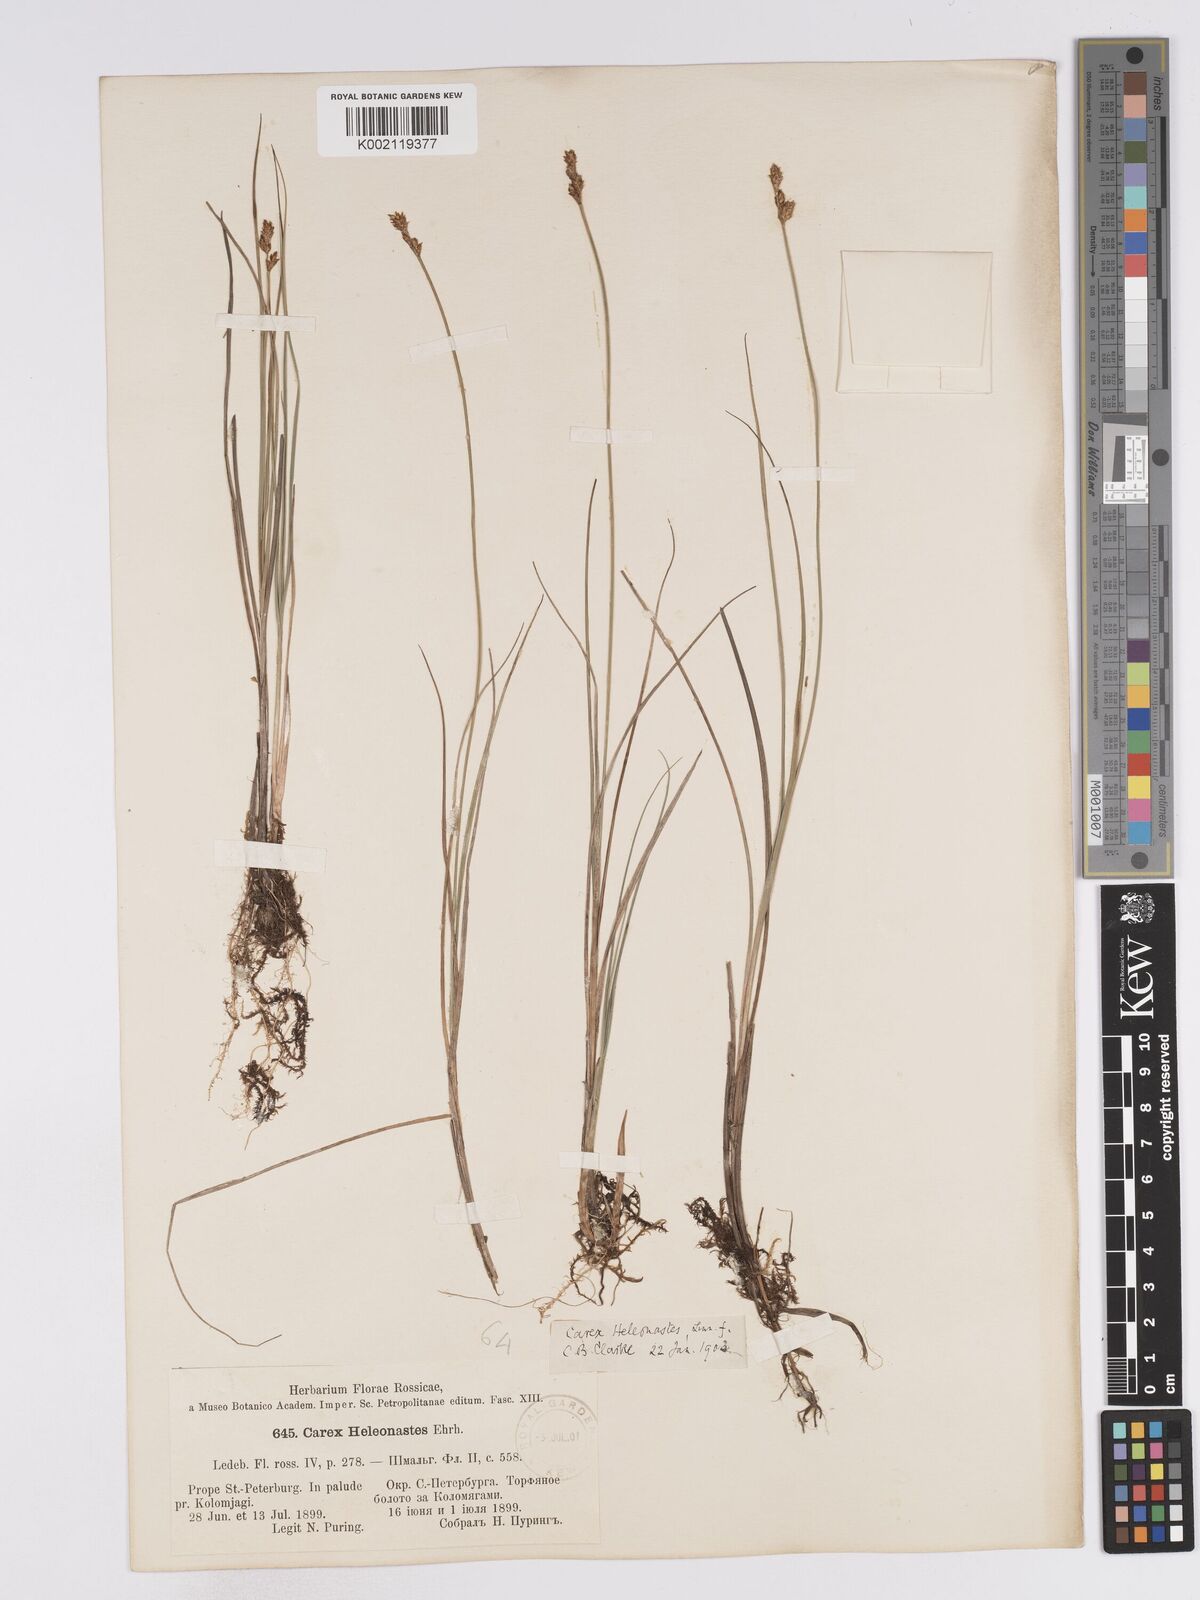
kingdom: Plantae
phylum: Tracheophyta
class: Liliopsida
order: Poales
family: Cyperaceae
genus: Carex
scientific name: Carex heleonastes
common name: Hudson bay sedge
